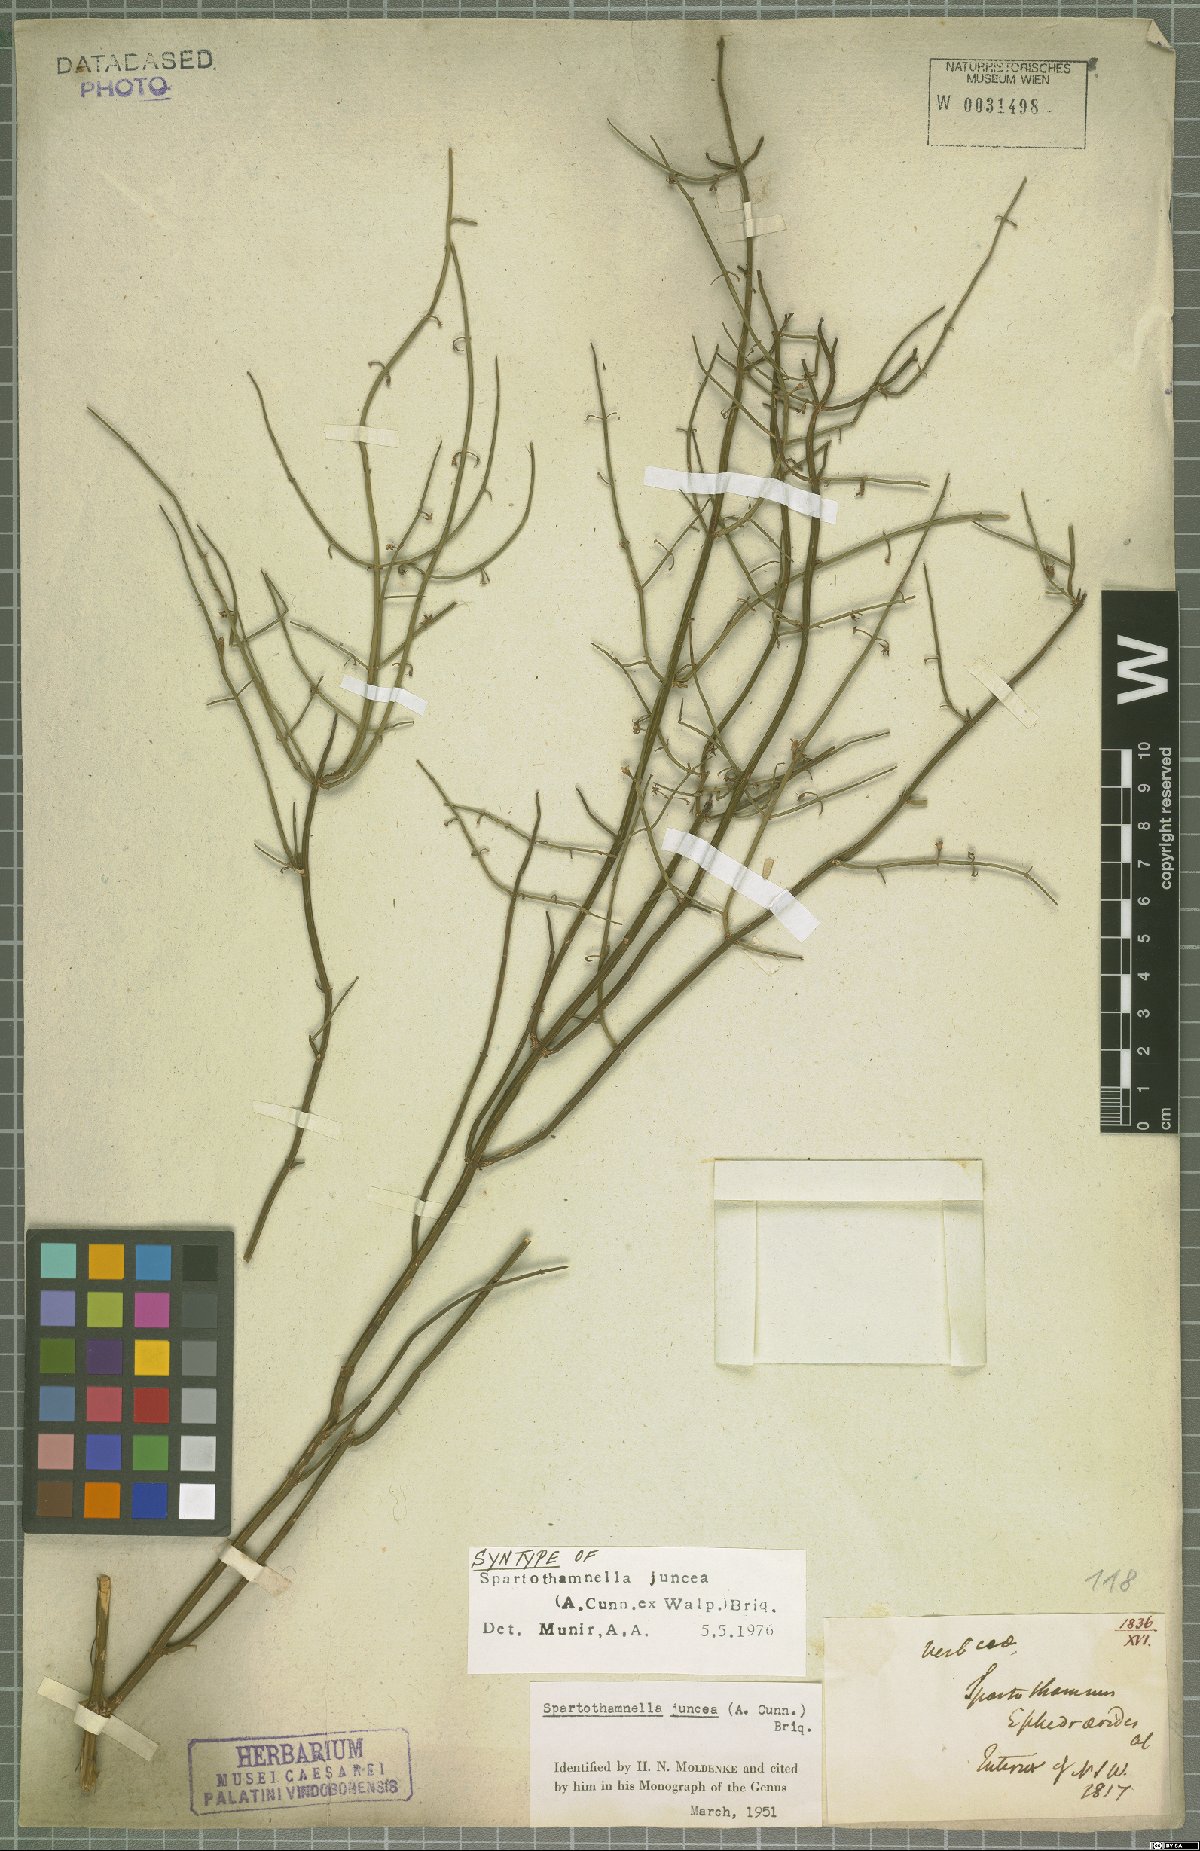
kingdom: Plantae
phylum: Tracheophyta
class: Magnoliopsida
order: Lamiales
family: Lamiaceae
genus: Teucrium
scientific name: Teucrium junceum
